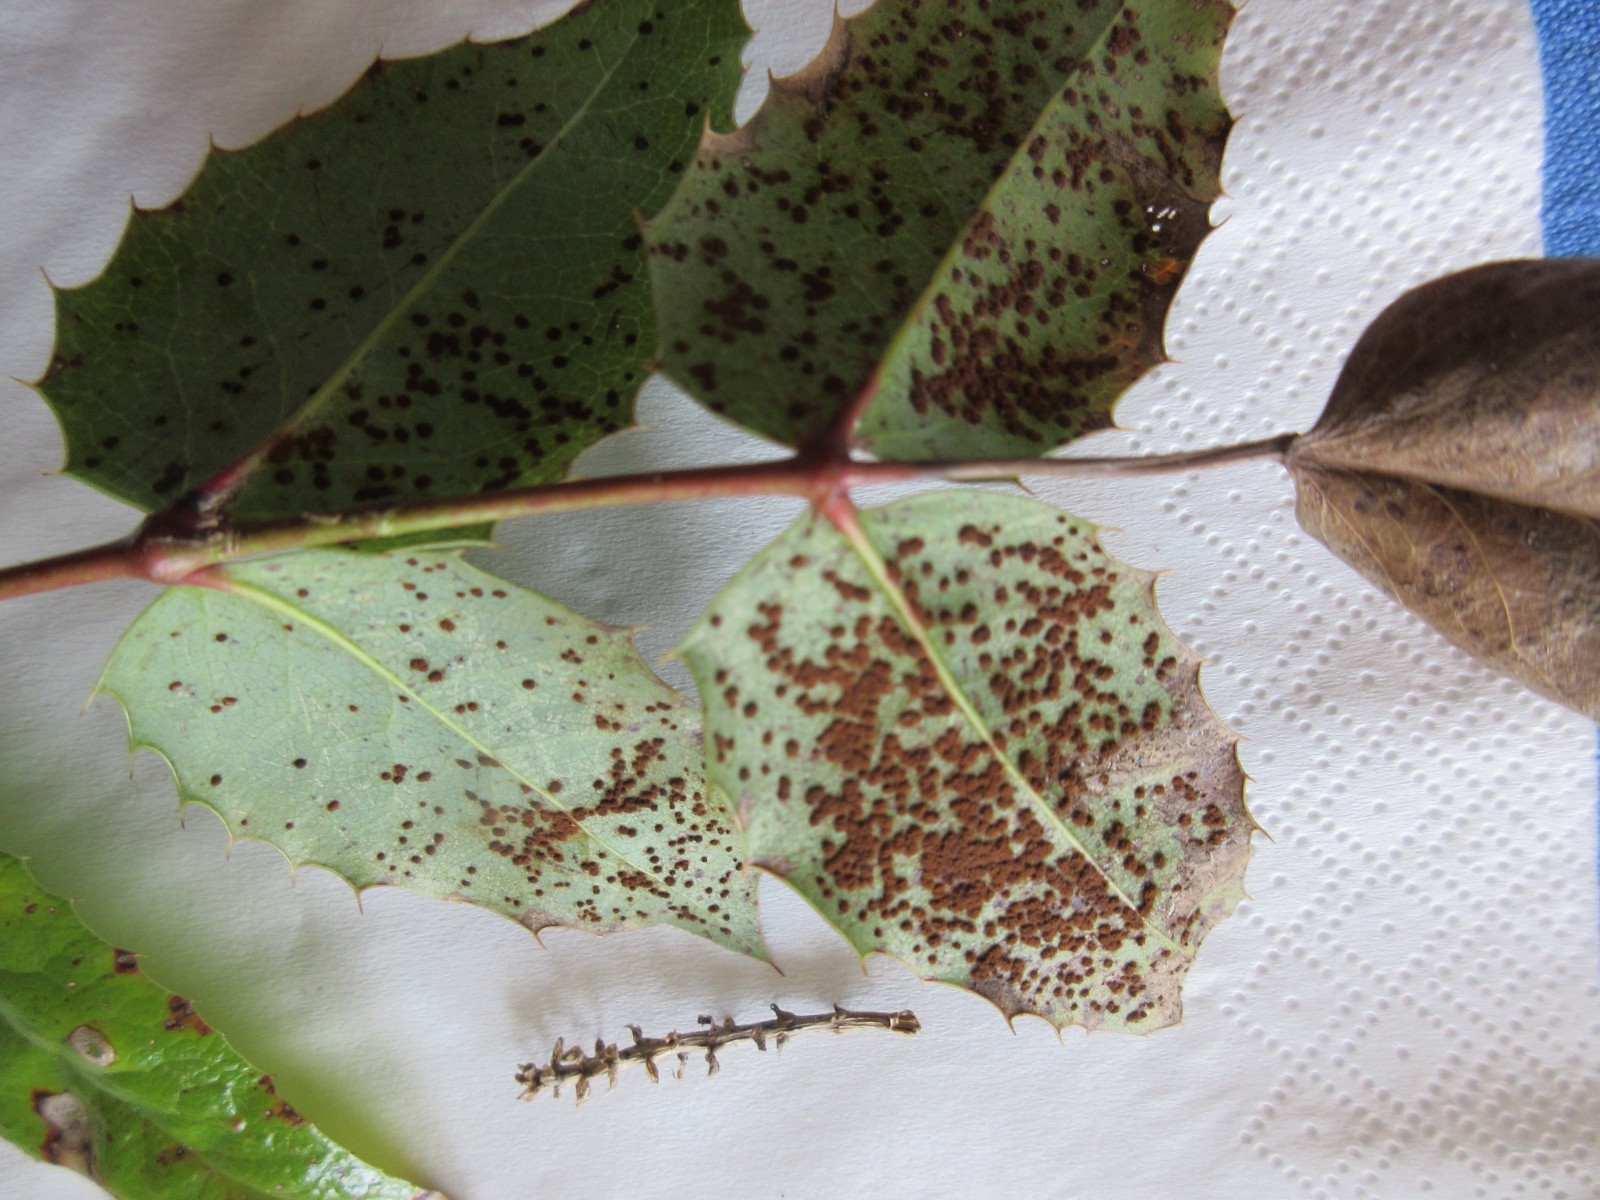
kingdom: Fungi
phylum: Basidiomycota
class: Pucciniomycetes
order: Pucciniales
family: Pucciniaceae
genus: Cumminsiella
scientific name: Cumminsiella mirabilissima
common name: mahonierust
